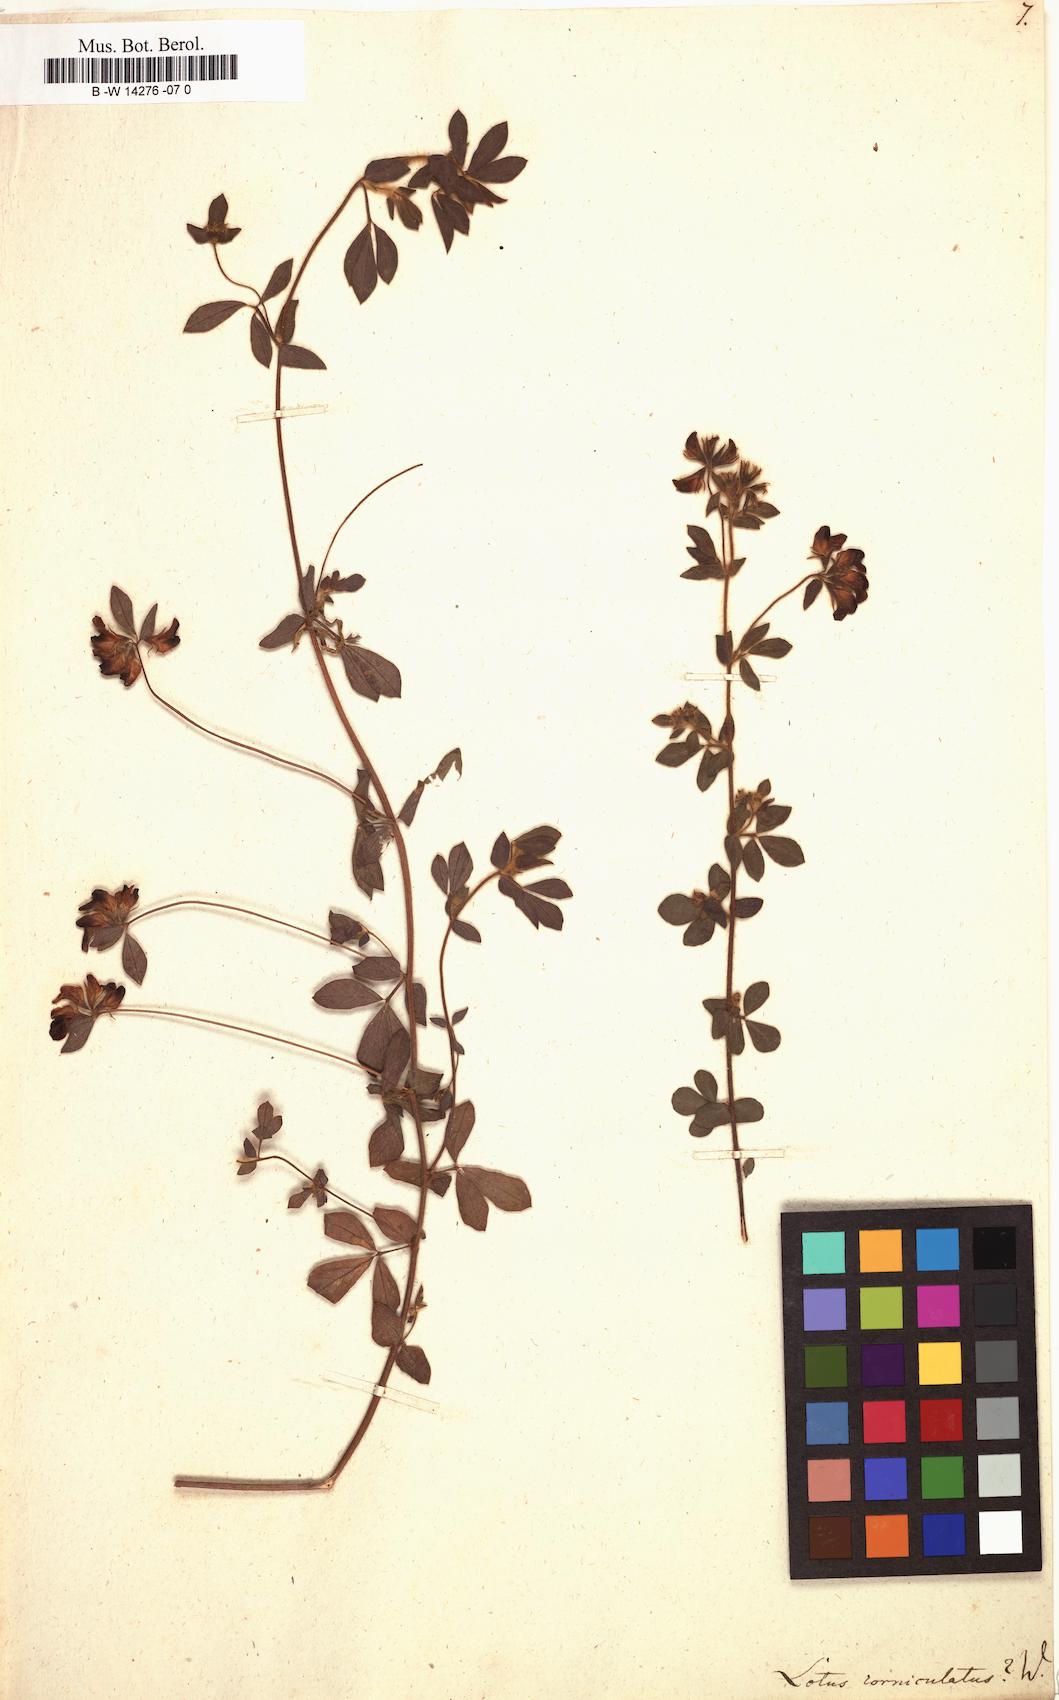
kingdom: Plantae
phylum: Tracheophyta
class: Magnoliopsida
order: Fabales
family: Fabaceae
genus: Lotus
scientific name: Lotus corniculatus
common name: Common bird's-foot-trefoil
